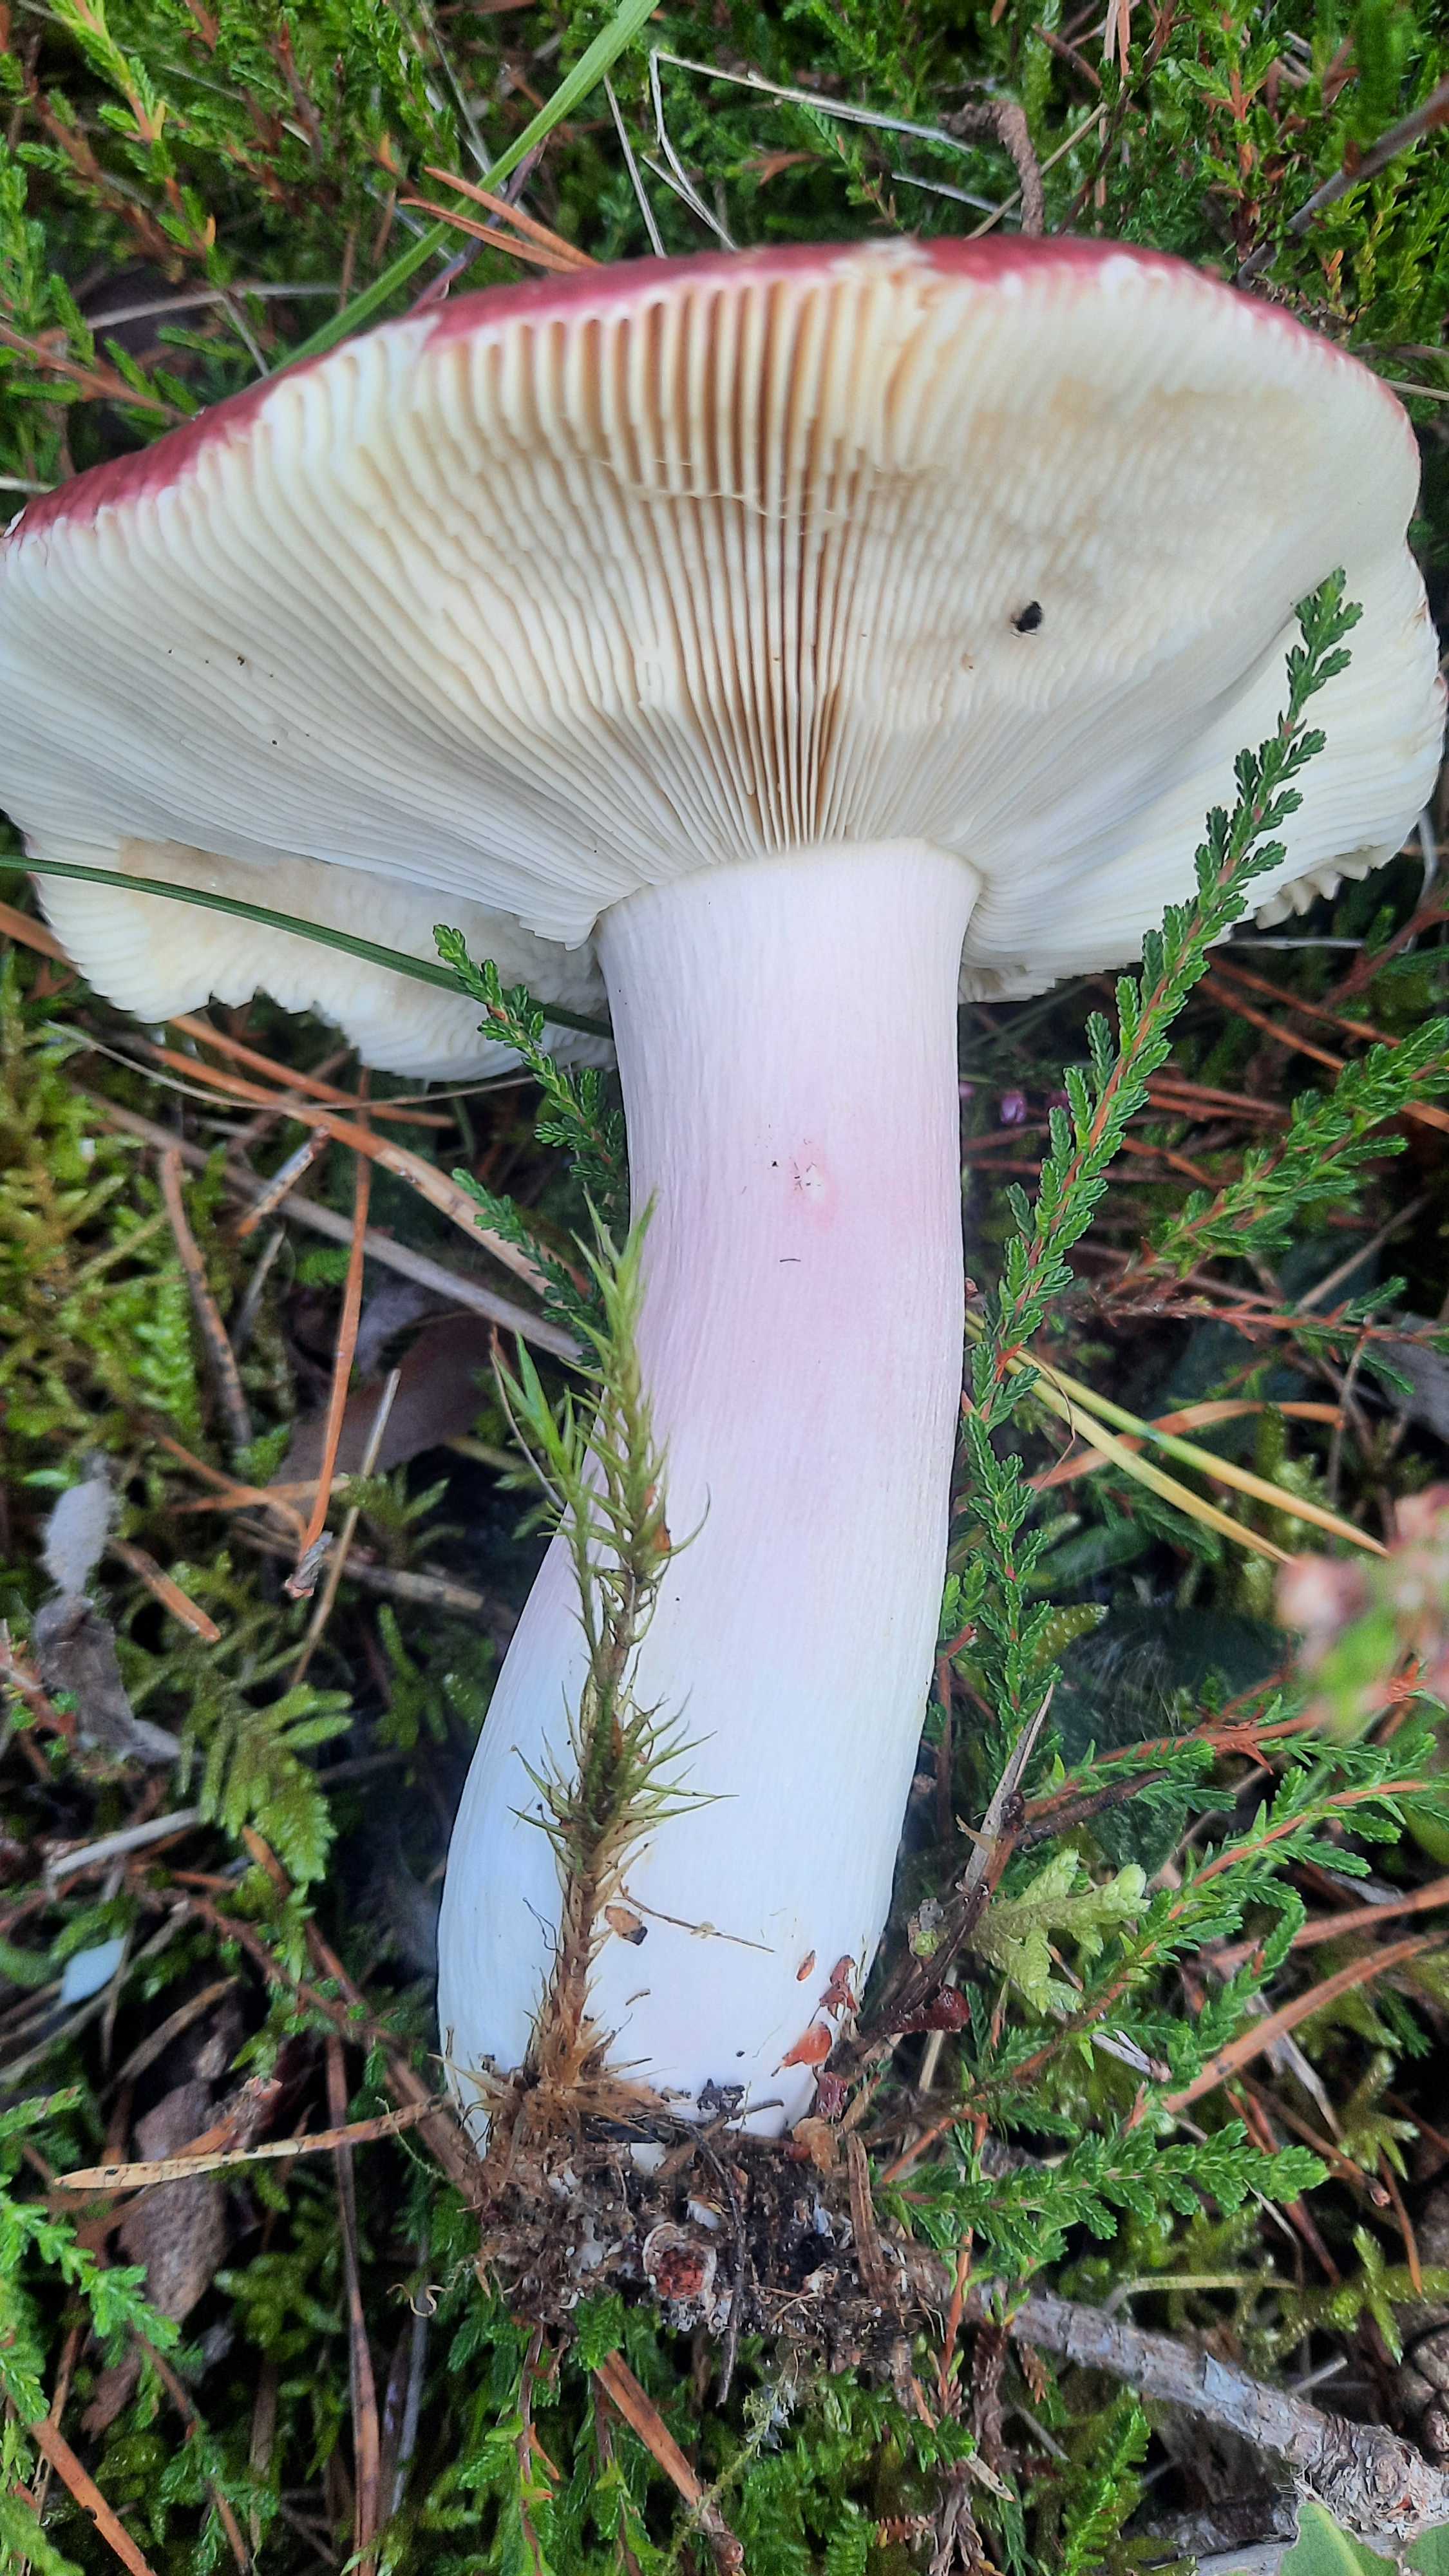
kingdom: Fungi
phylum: Basidiomycota
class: Agaricomycetes
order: Russulales
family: Russulaceae
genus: Russula
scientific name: Russula paludosa
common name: prægtig skørhat
